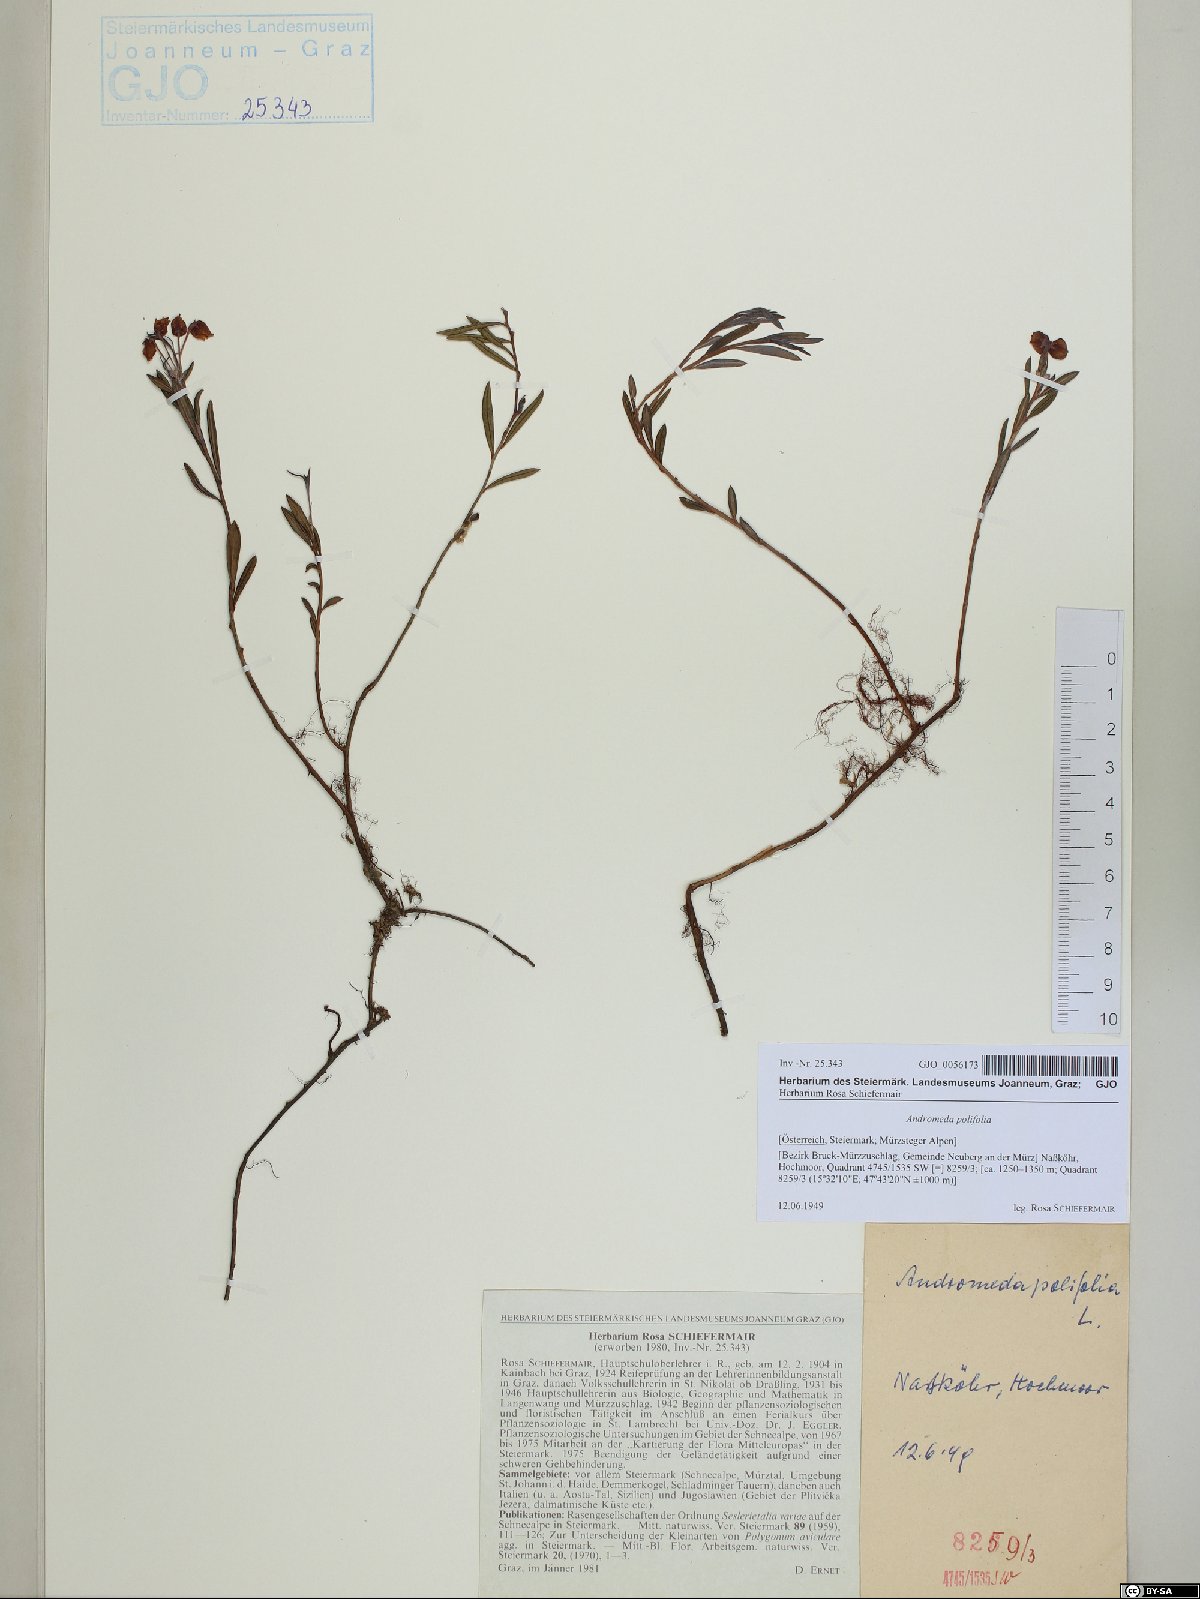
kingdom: Plantae
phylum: Tracheophyta
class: Magnoliopsida
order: Ericales
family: Ericaceae
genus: Andromeda
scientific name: Andromeda polifolia
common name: Bog-rosemary
